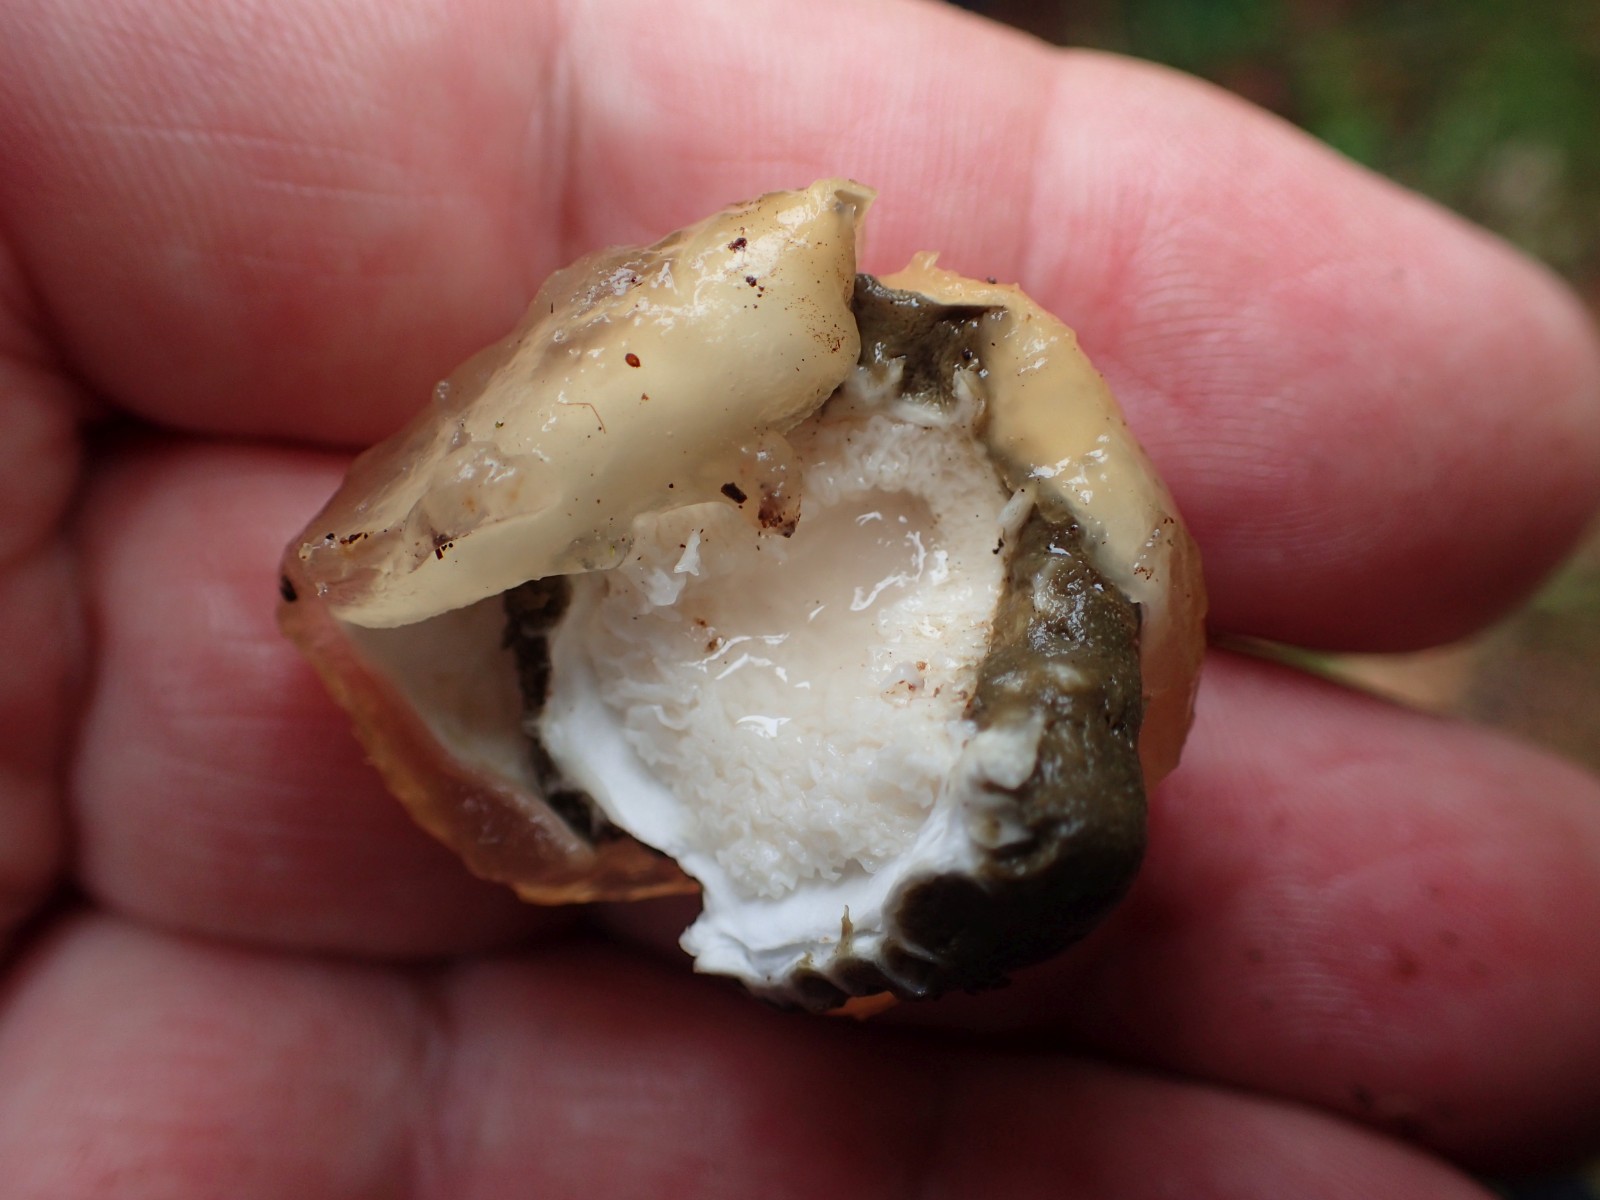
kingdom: Fungi
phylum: Basidiomycota
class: Agaricomycetes
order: Phallales
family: Phallaceae
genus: Phallus
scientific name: Phallus impudicus
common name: almindelig stinksvamp
